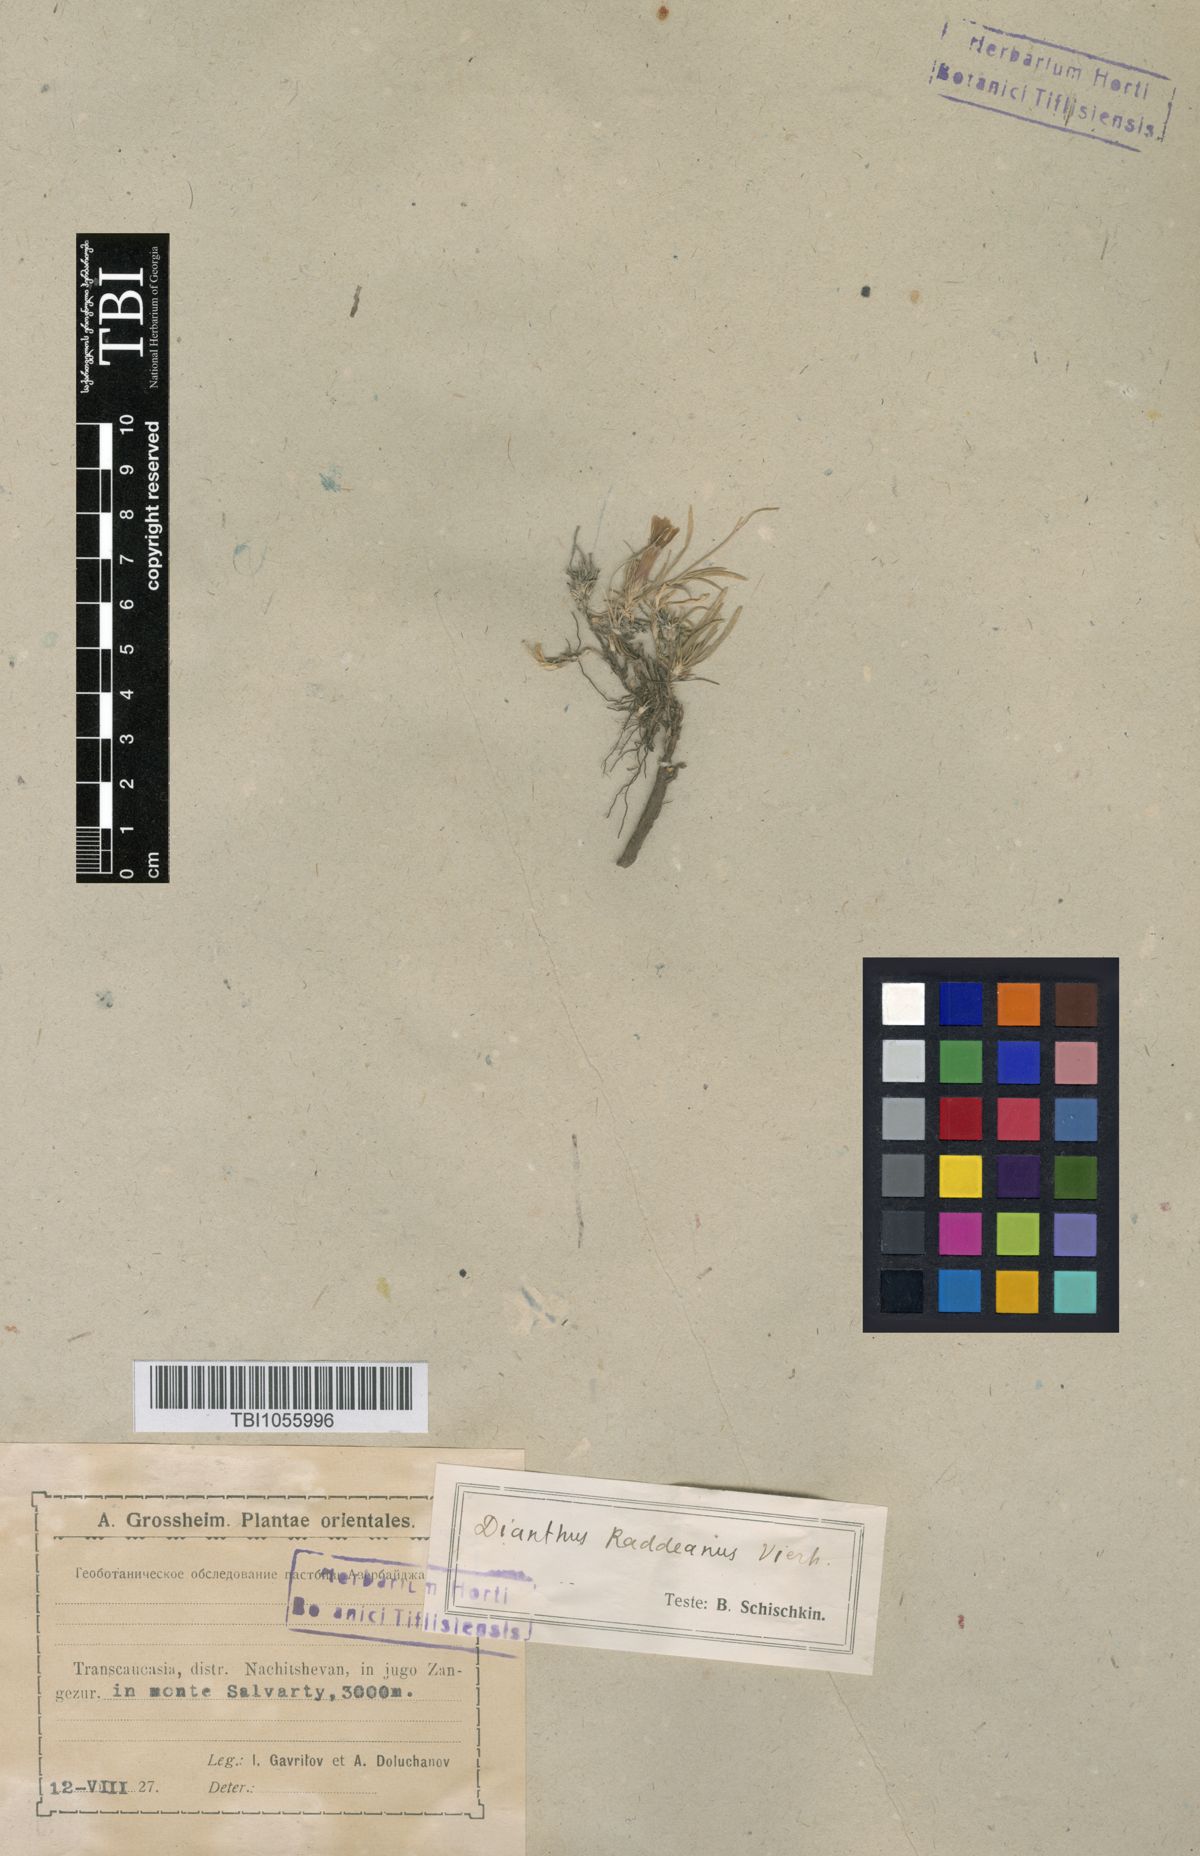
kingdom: Plantae
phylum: Tracheophyta
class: Magnoliopsida
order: Caryophyllales
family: Caryophyllaceae
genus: Dianthus
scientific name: Dianthus raddeanus
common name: Radde's pink
